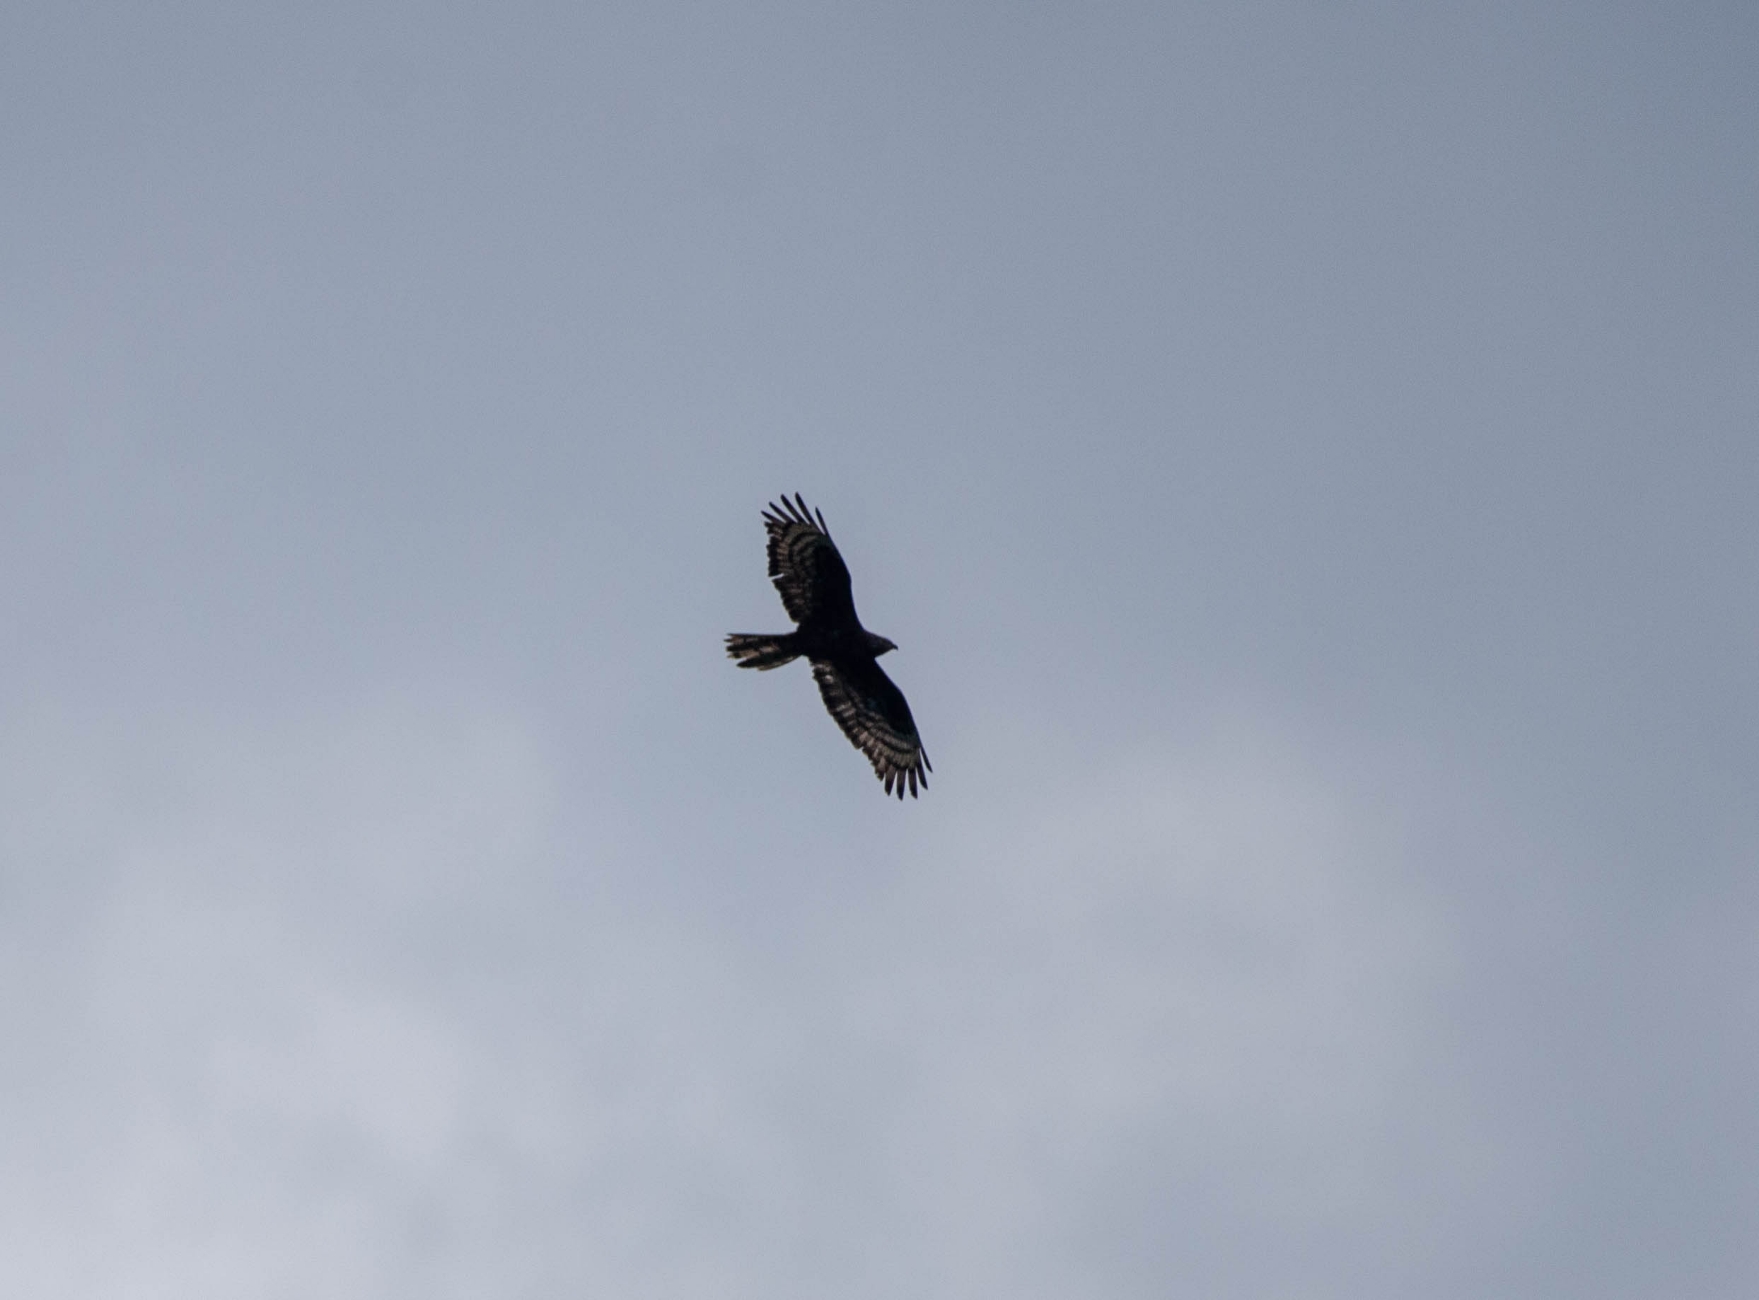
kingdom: Animalia
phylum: Chordata
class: Aves
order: Accipitriformes
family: Accipitridae
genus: Pernis
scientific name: Pernis apivorus
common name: Hvepsevåge
